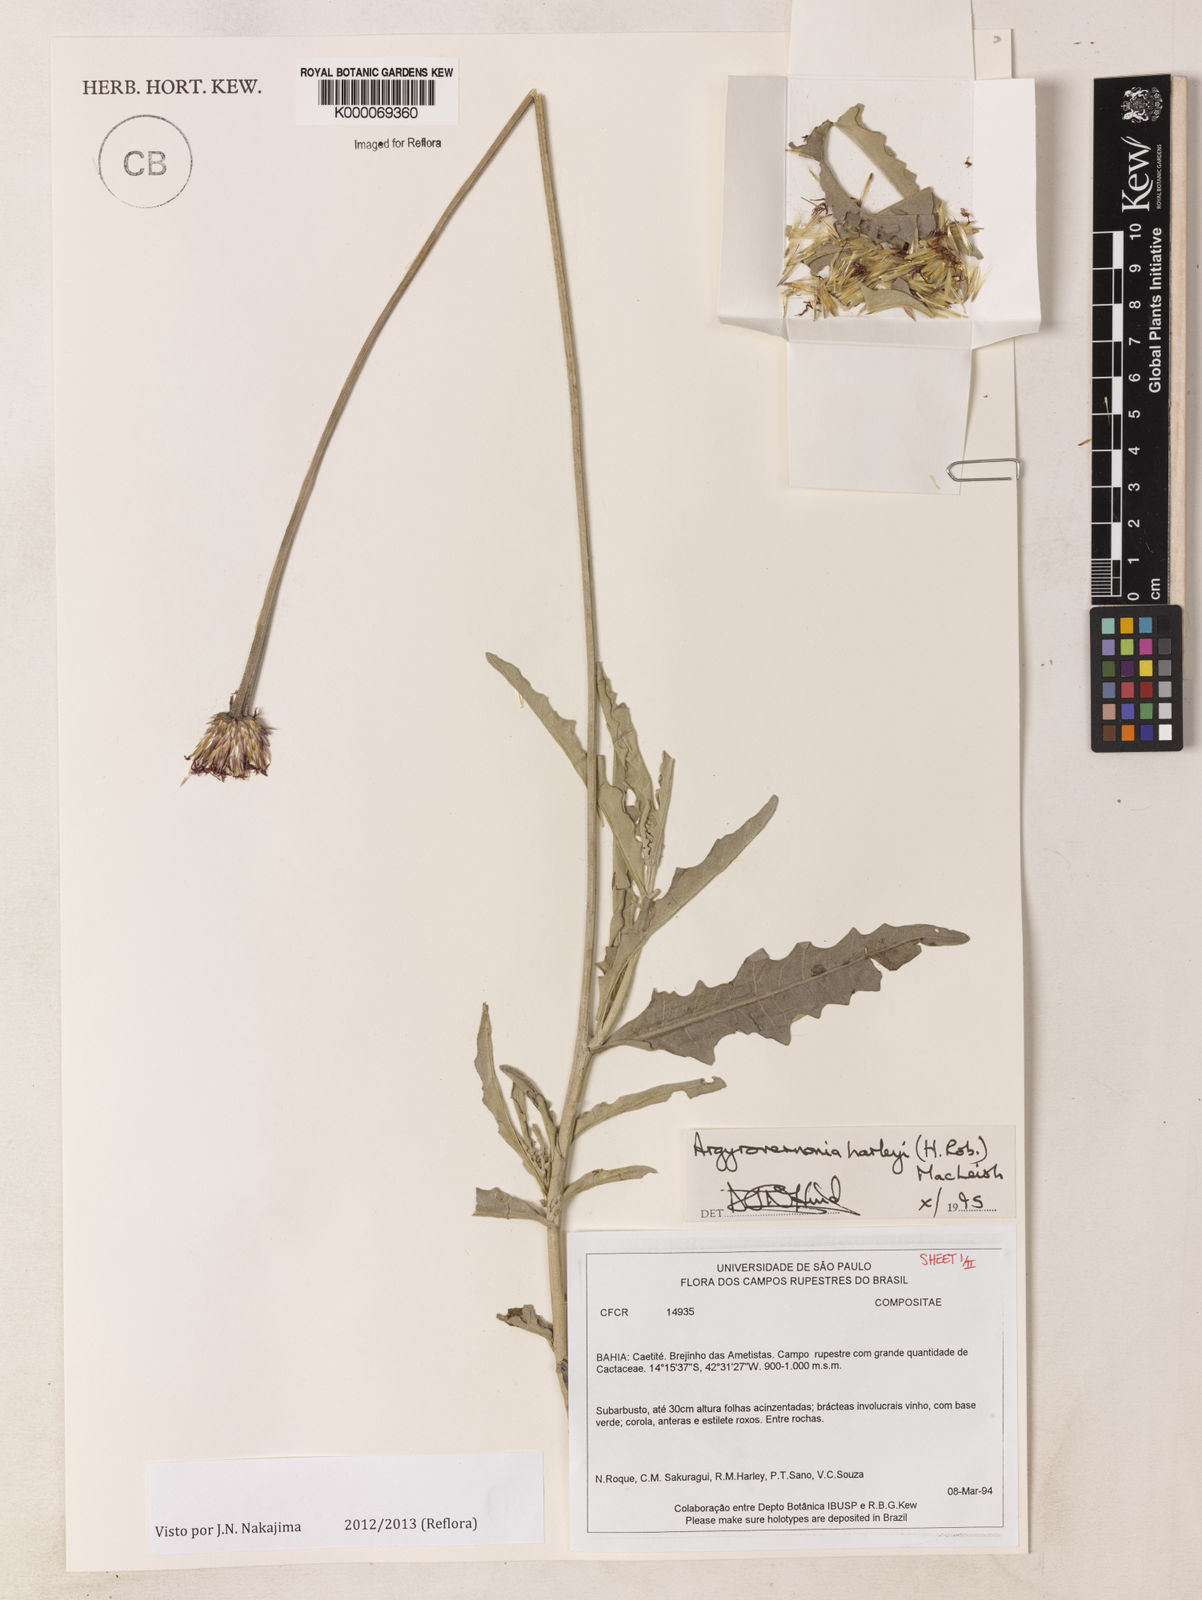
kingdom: Plantae
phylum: Tracheophyta
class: Magnoliopsida
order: Asterales
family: Asteraceae
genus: Chresta
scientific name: Chresta harleyi
